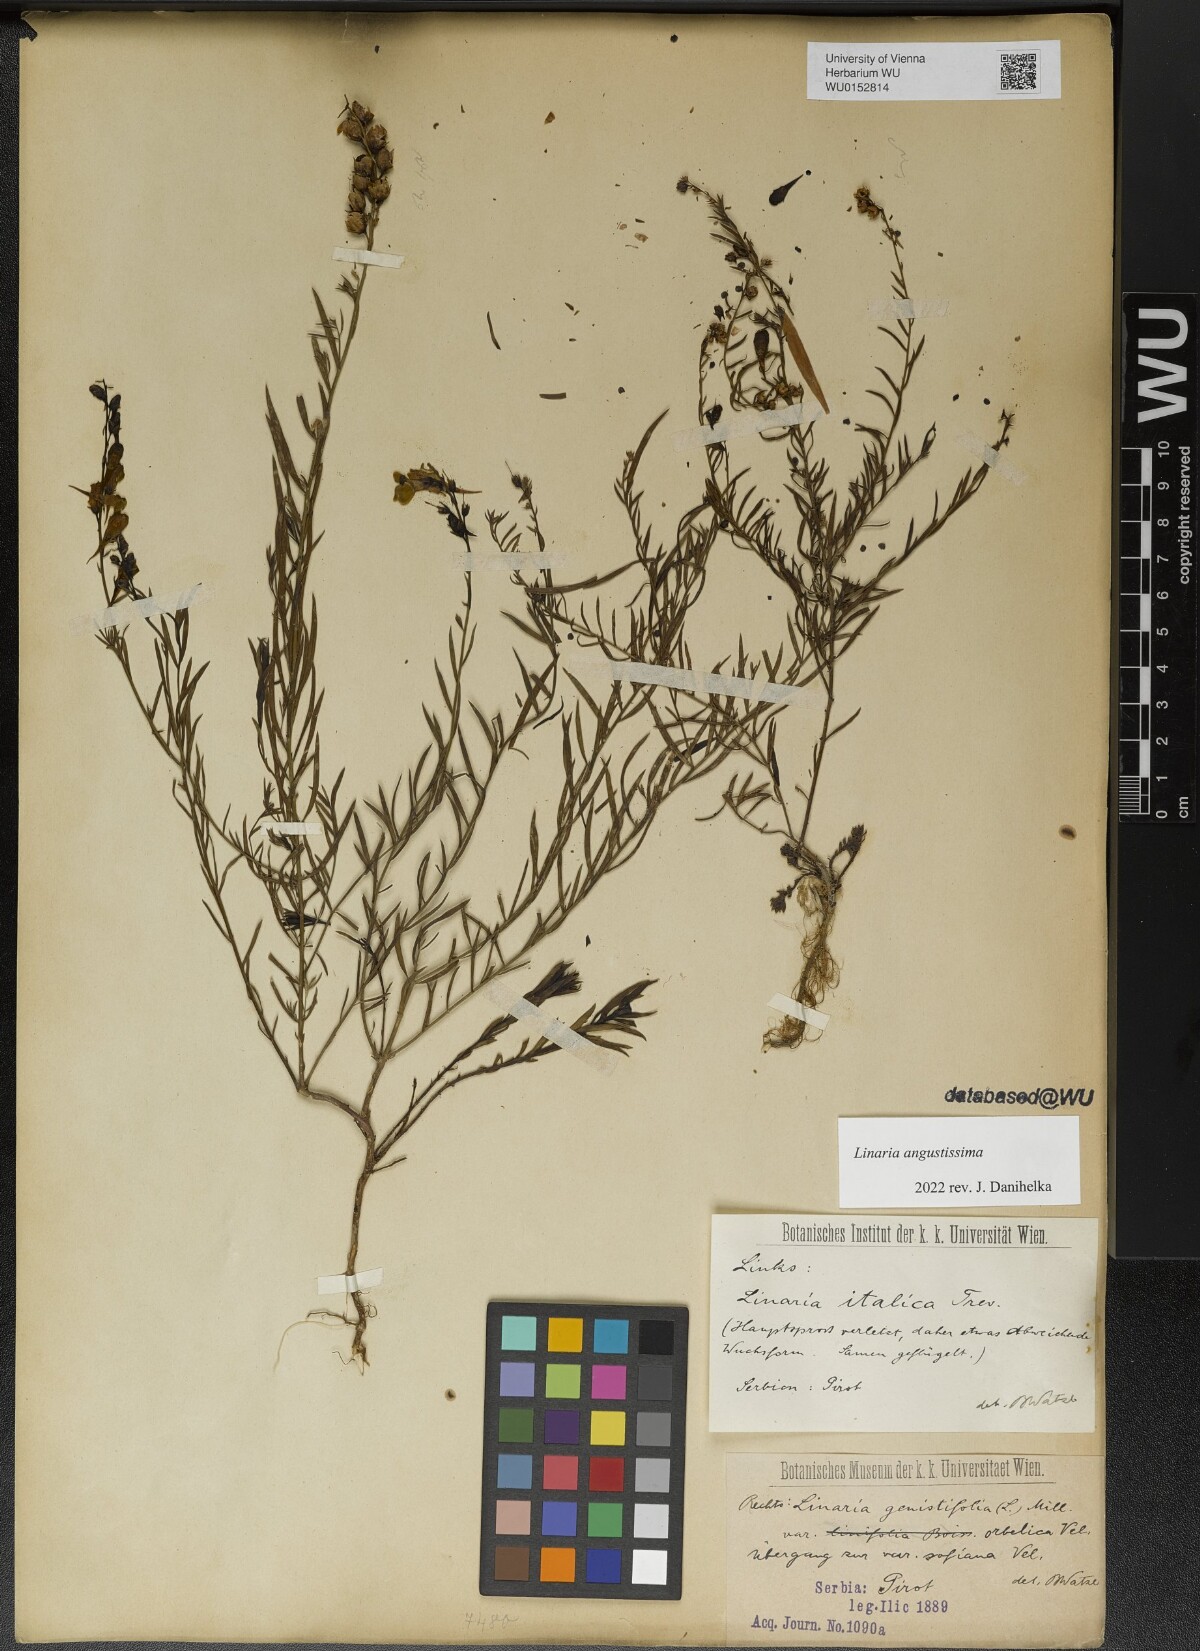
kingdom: Plantae
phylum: Tracheophyta
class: Magnoliopsida
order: Lamiales
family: Plantaginaceae
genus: Linaria
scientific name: Linaria angustissima
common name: Italian toadflax
